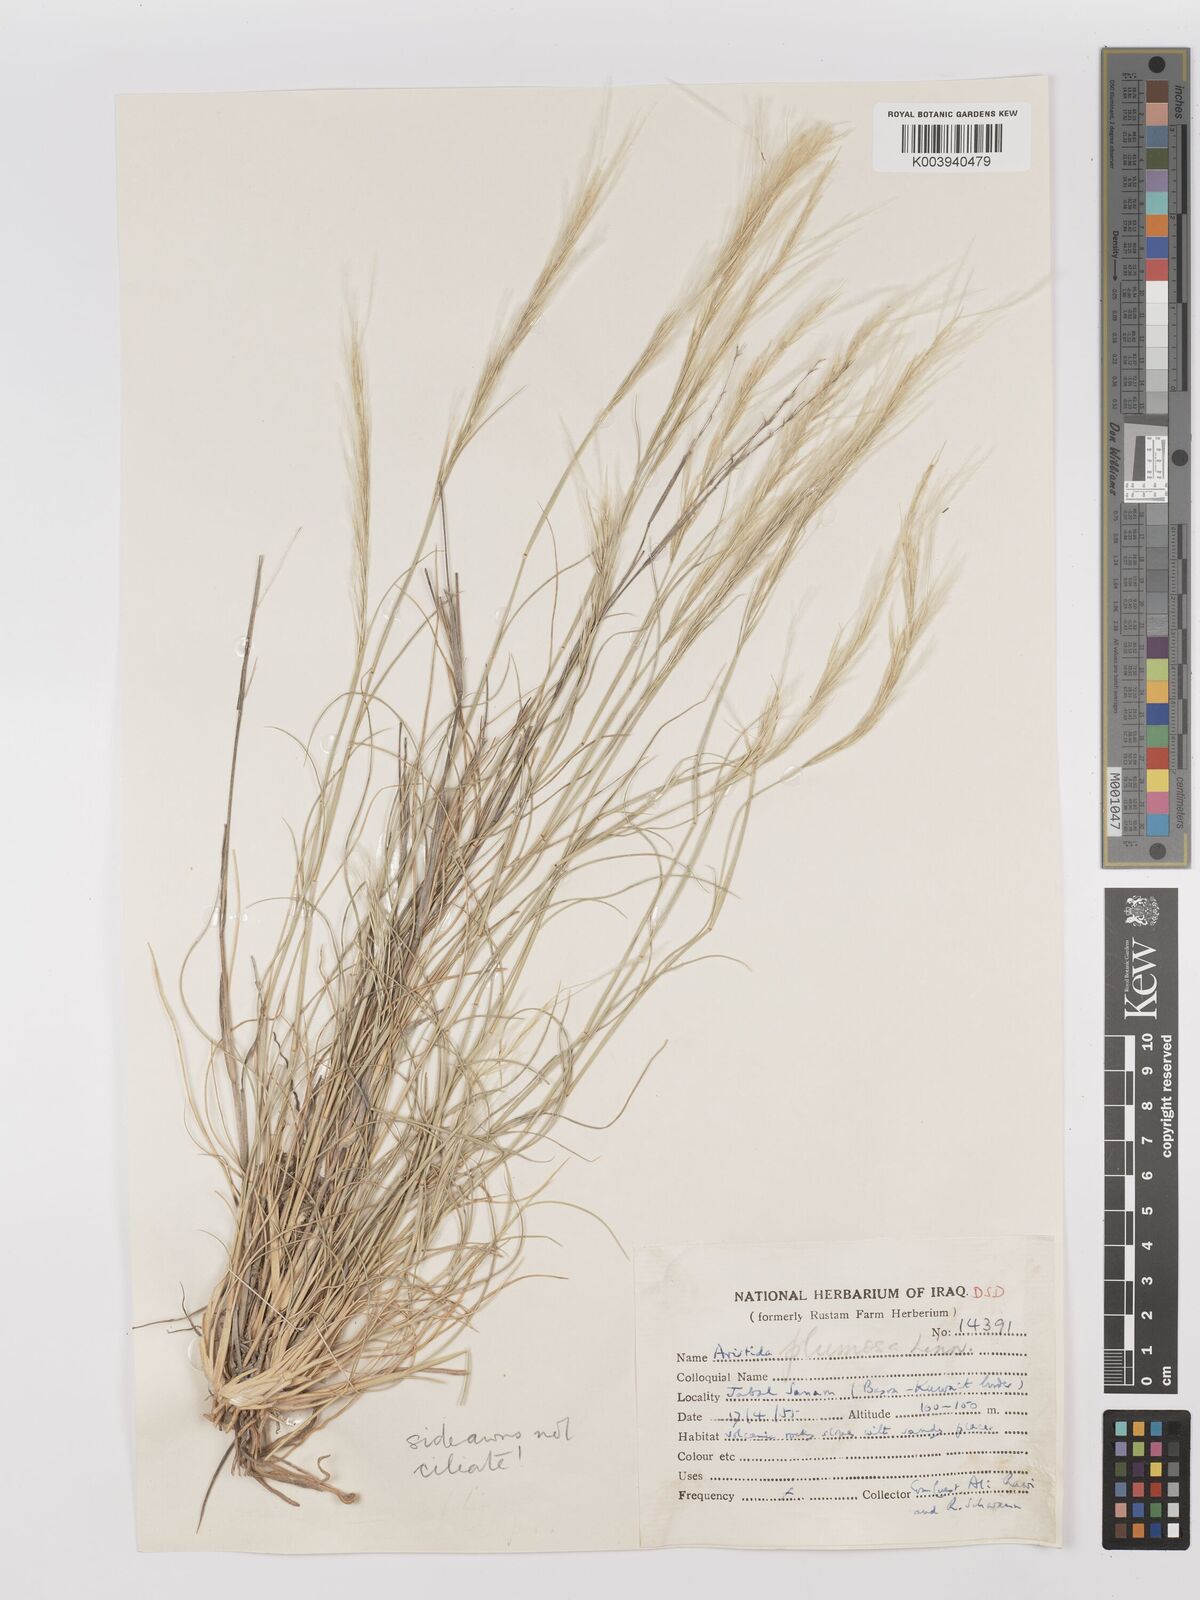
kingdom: Plantae
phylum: Tracheophyta
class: Liliopsida
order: Poales
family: Poaceae
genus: Stipagrostis
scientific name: Stipagrostis plumosa
